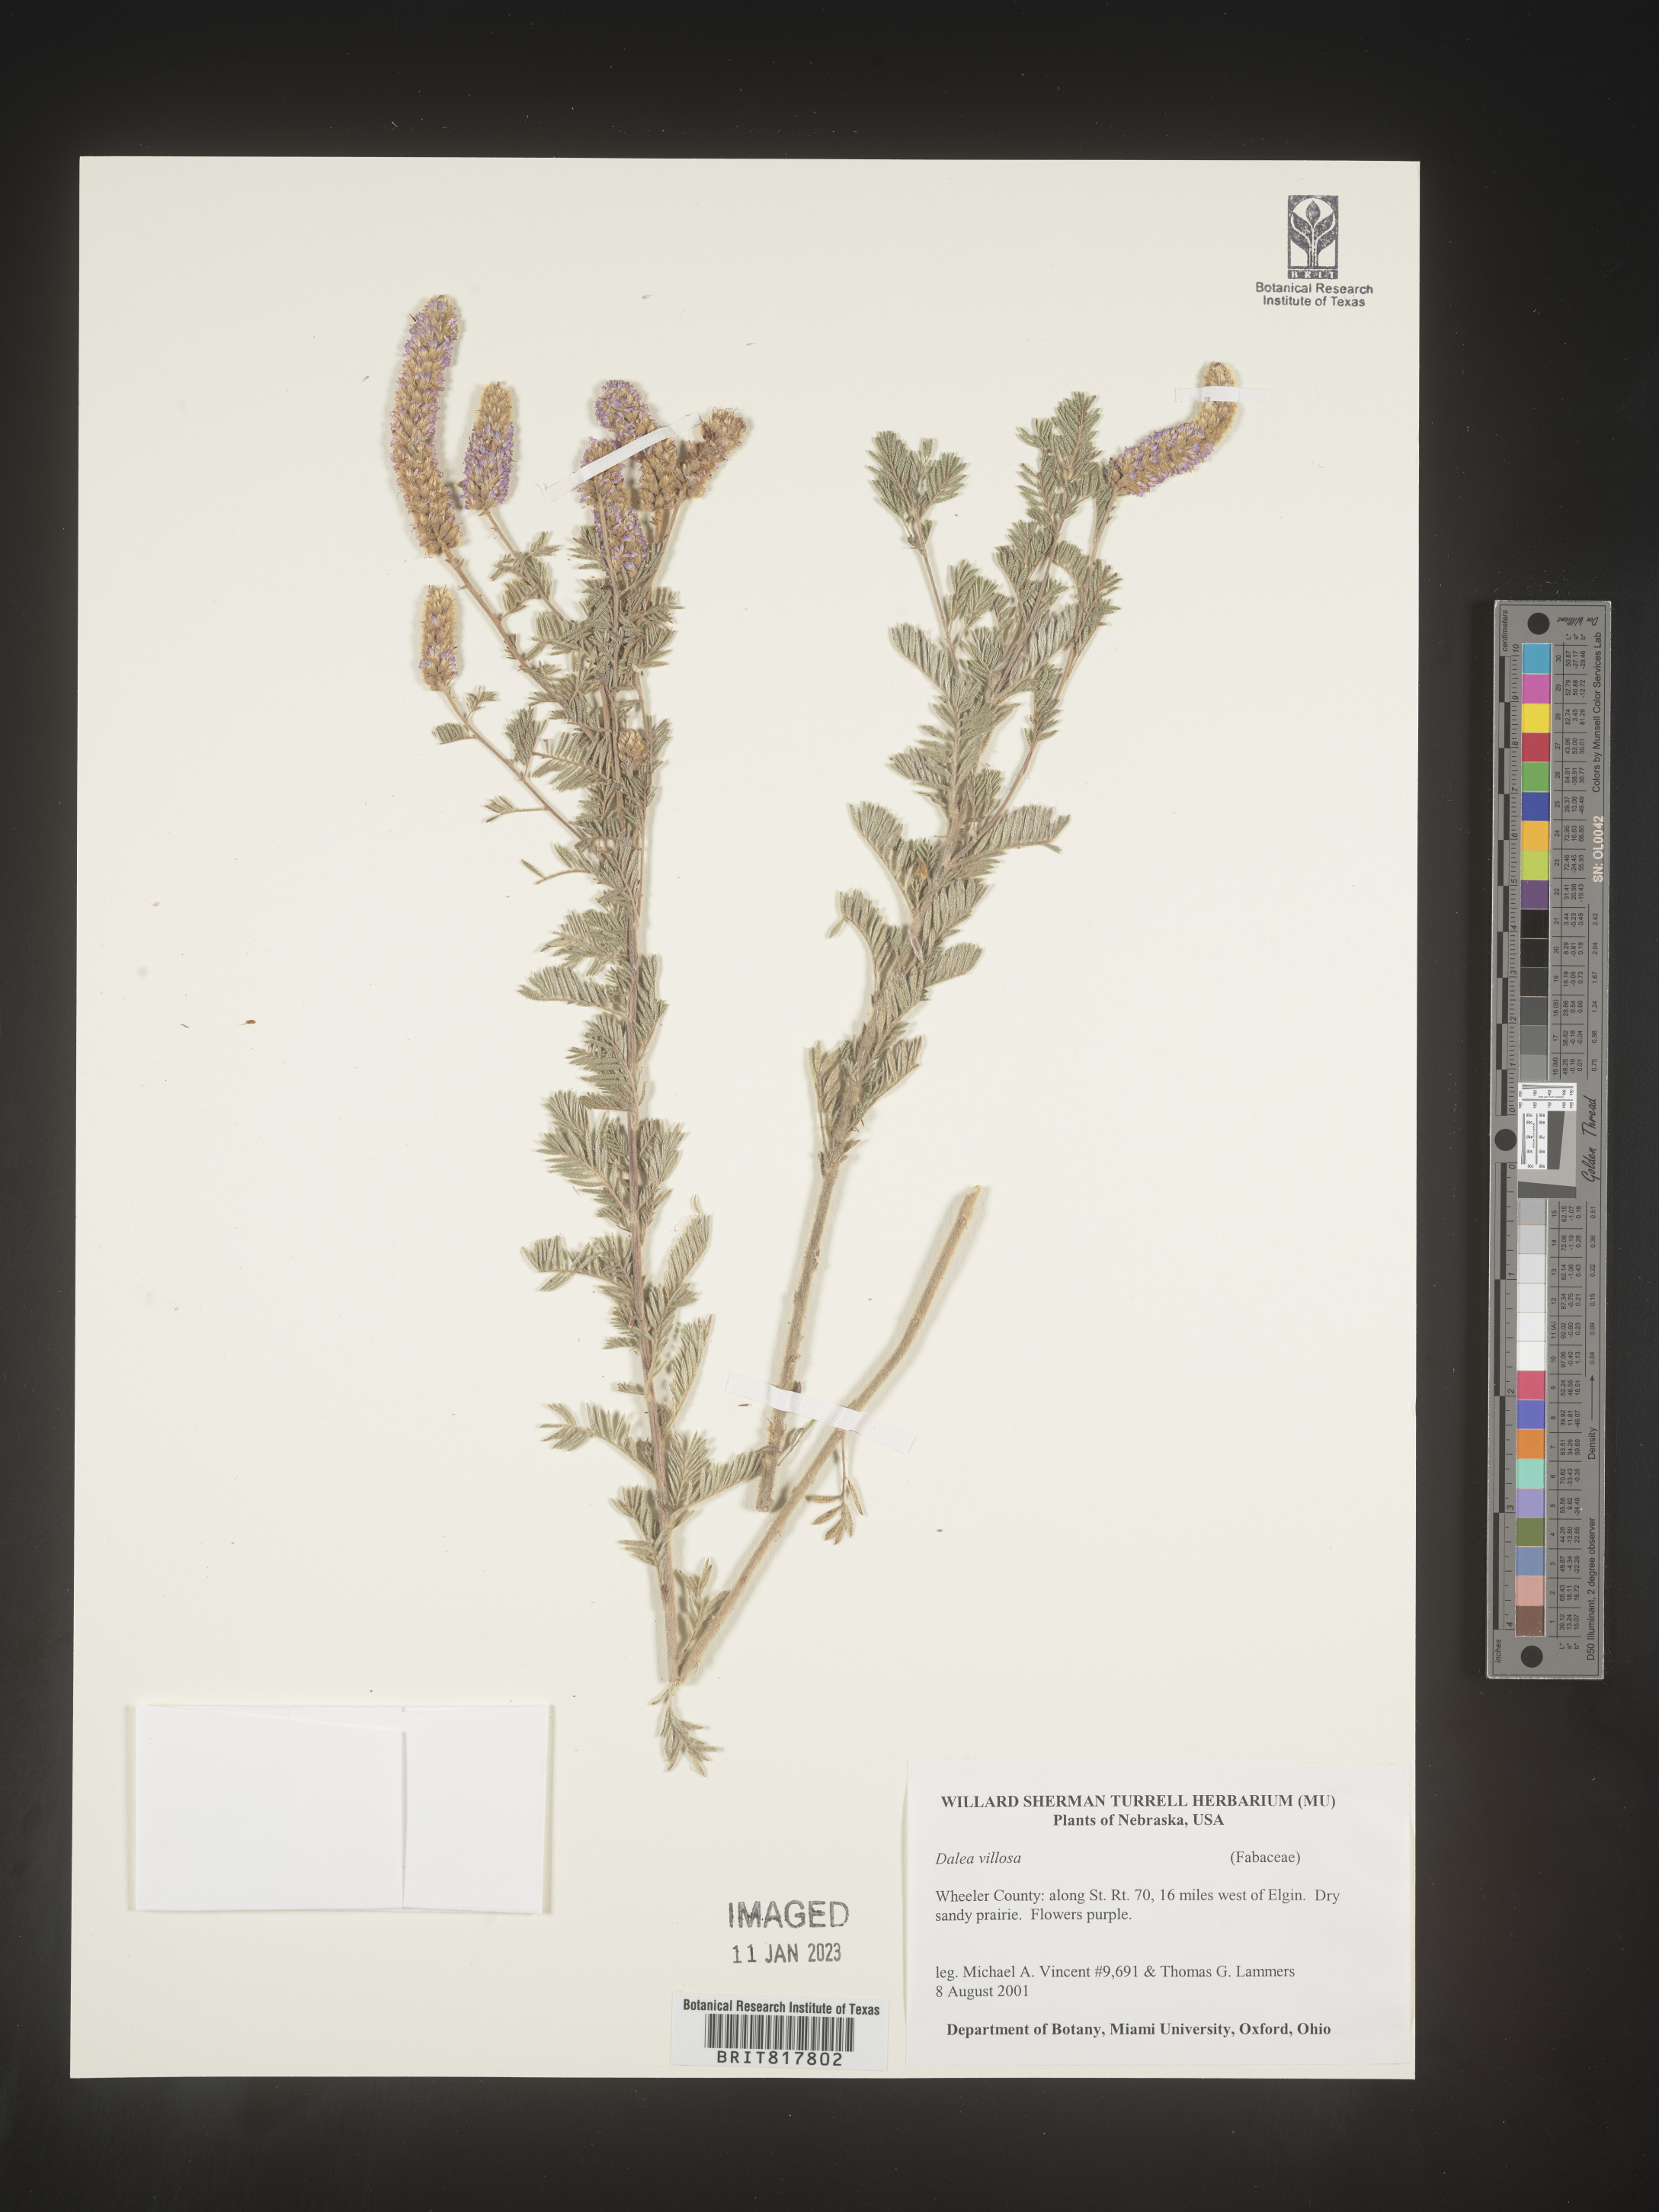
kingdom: Plantae
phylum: Tracheophyta
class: Magnoliopsida
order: Fabales
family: Fabaceae
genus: Dalea
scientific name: Dalea villosa
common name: Silky prairie-clover
